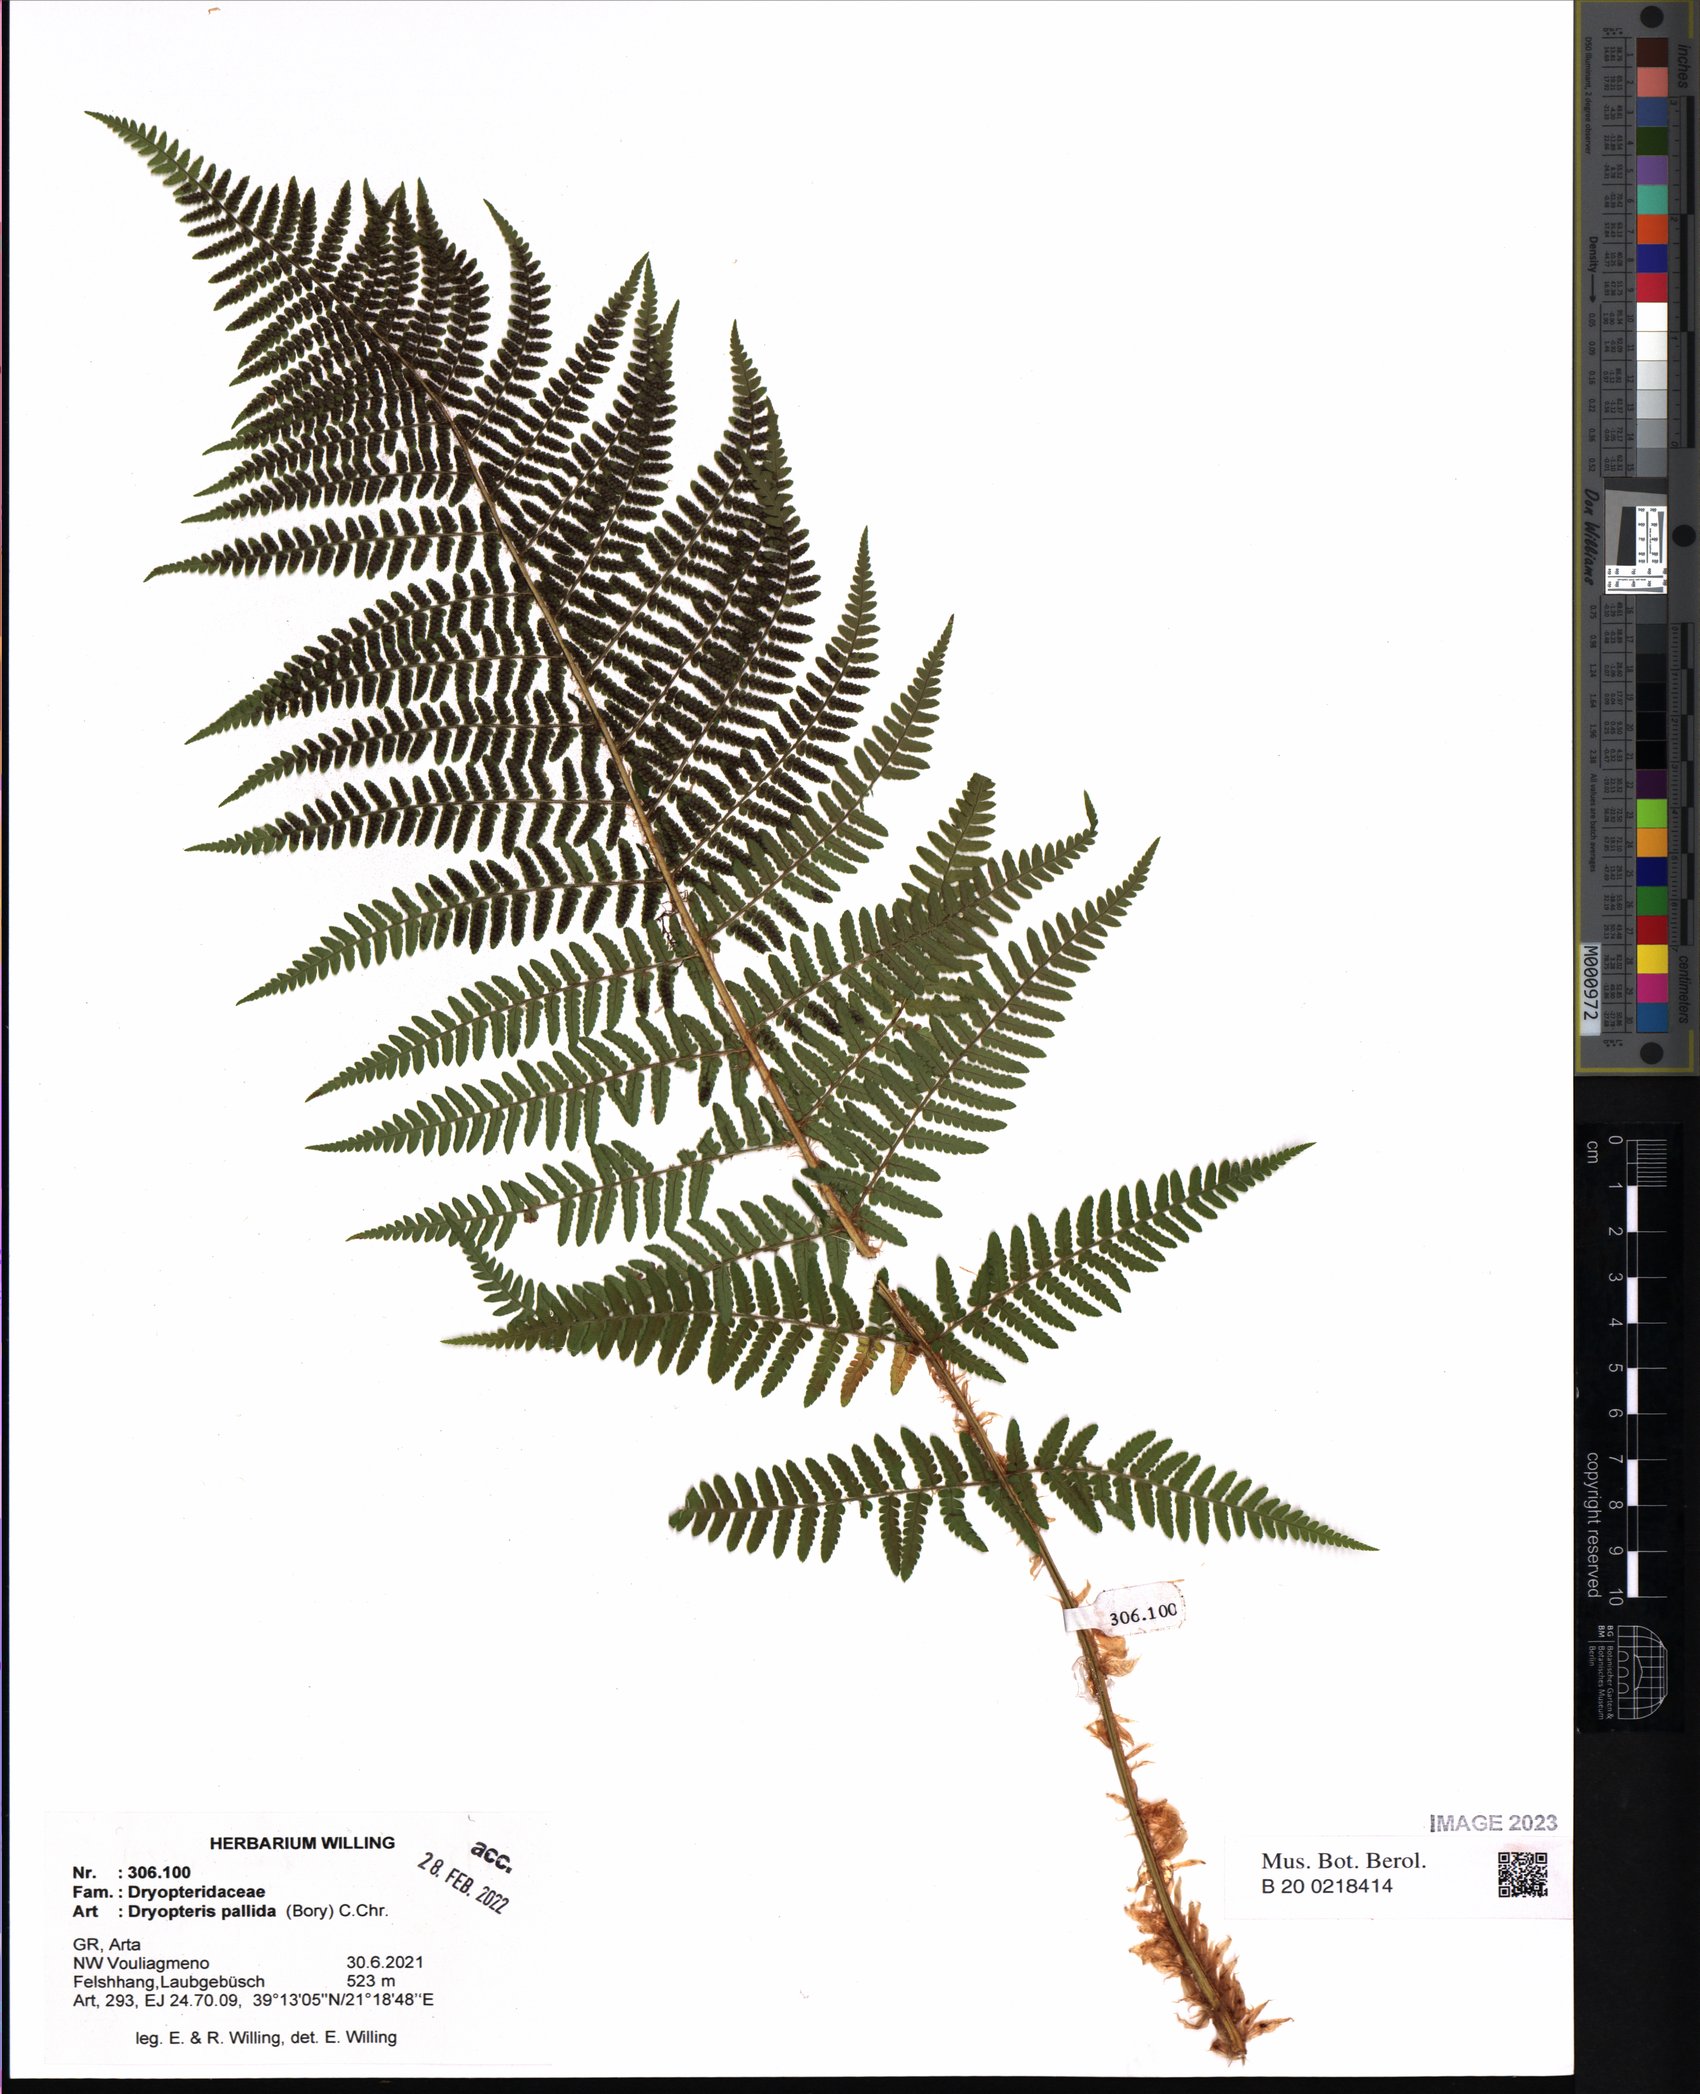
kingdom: Plantae
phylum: Tracheophyta
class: Polypodiopsida
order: Polypodiales
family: Dryopteridaceae
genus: Dryopteris
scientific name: Dryopteris pallida
